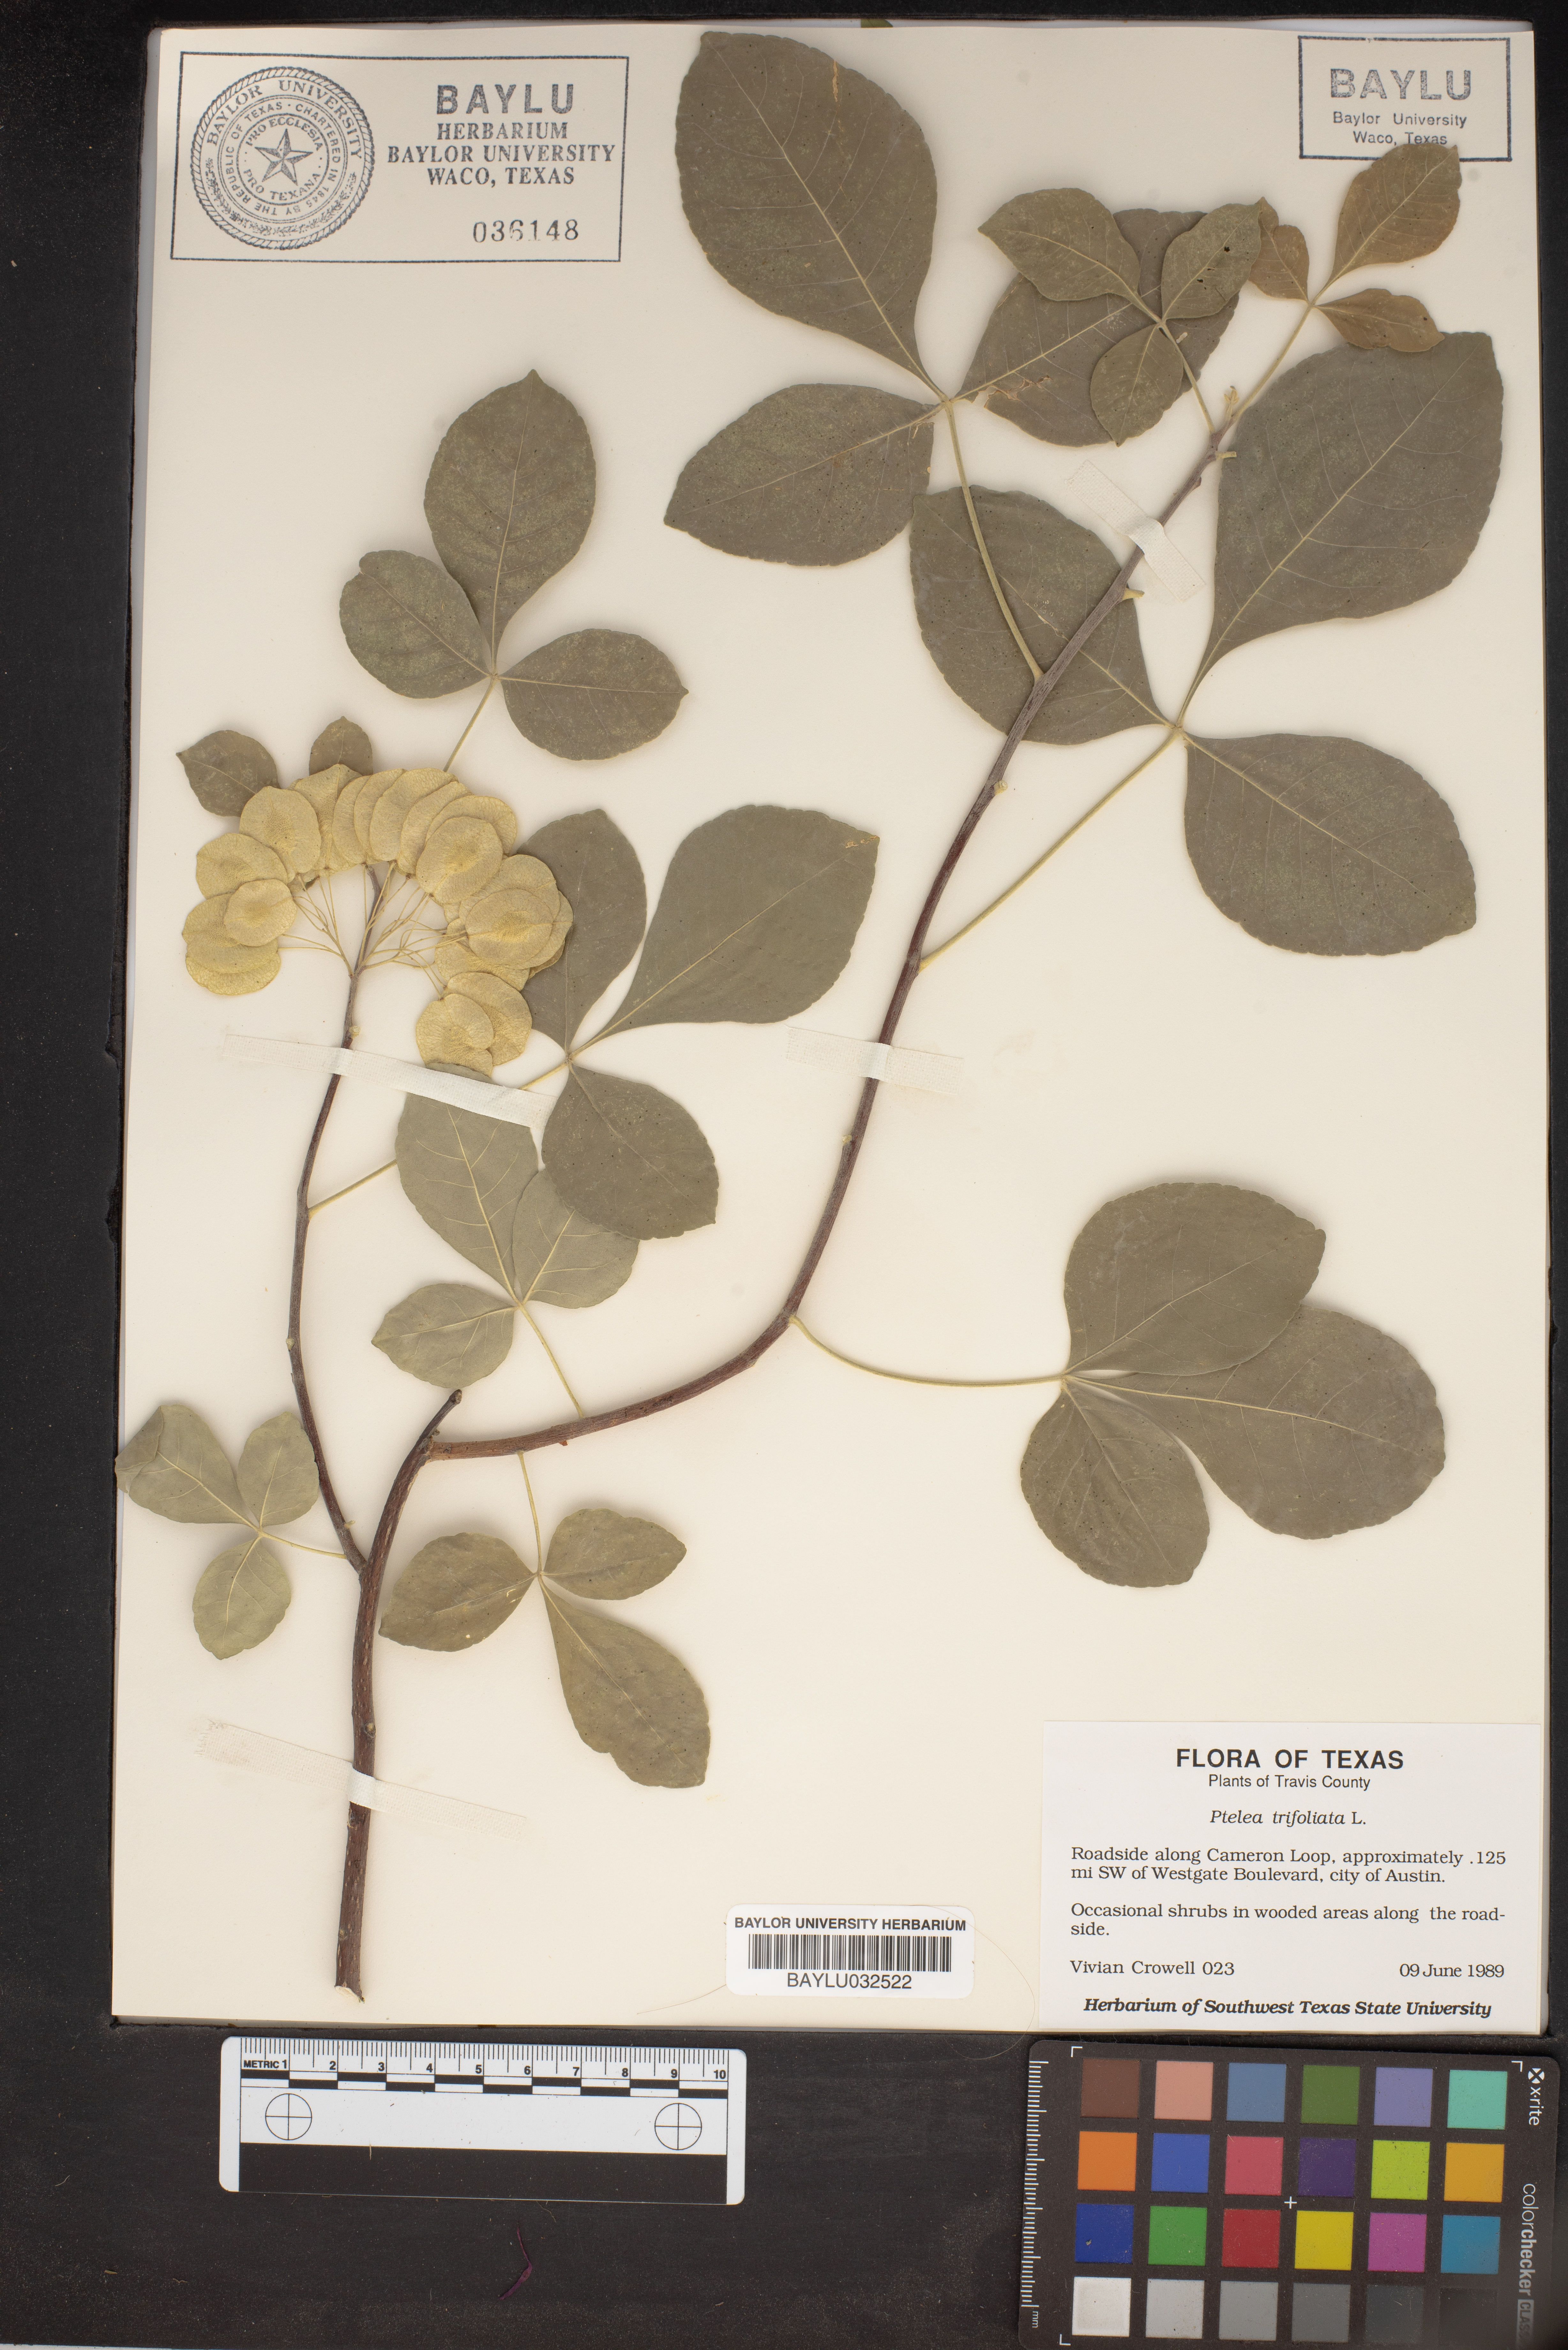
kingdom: Plantae
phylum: Tracheophyta
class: Magnoliopsida
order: Sapindales
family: Rutaceae
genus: Ptelea
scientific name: Ptelea trifoliata
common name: Common hop-tree
